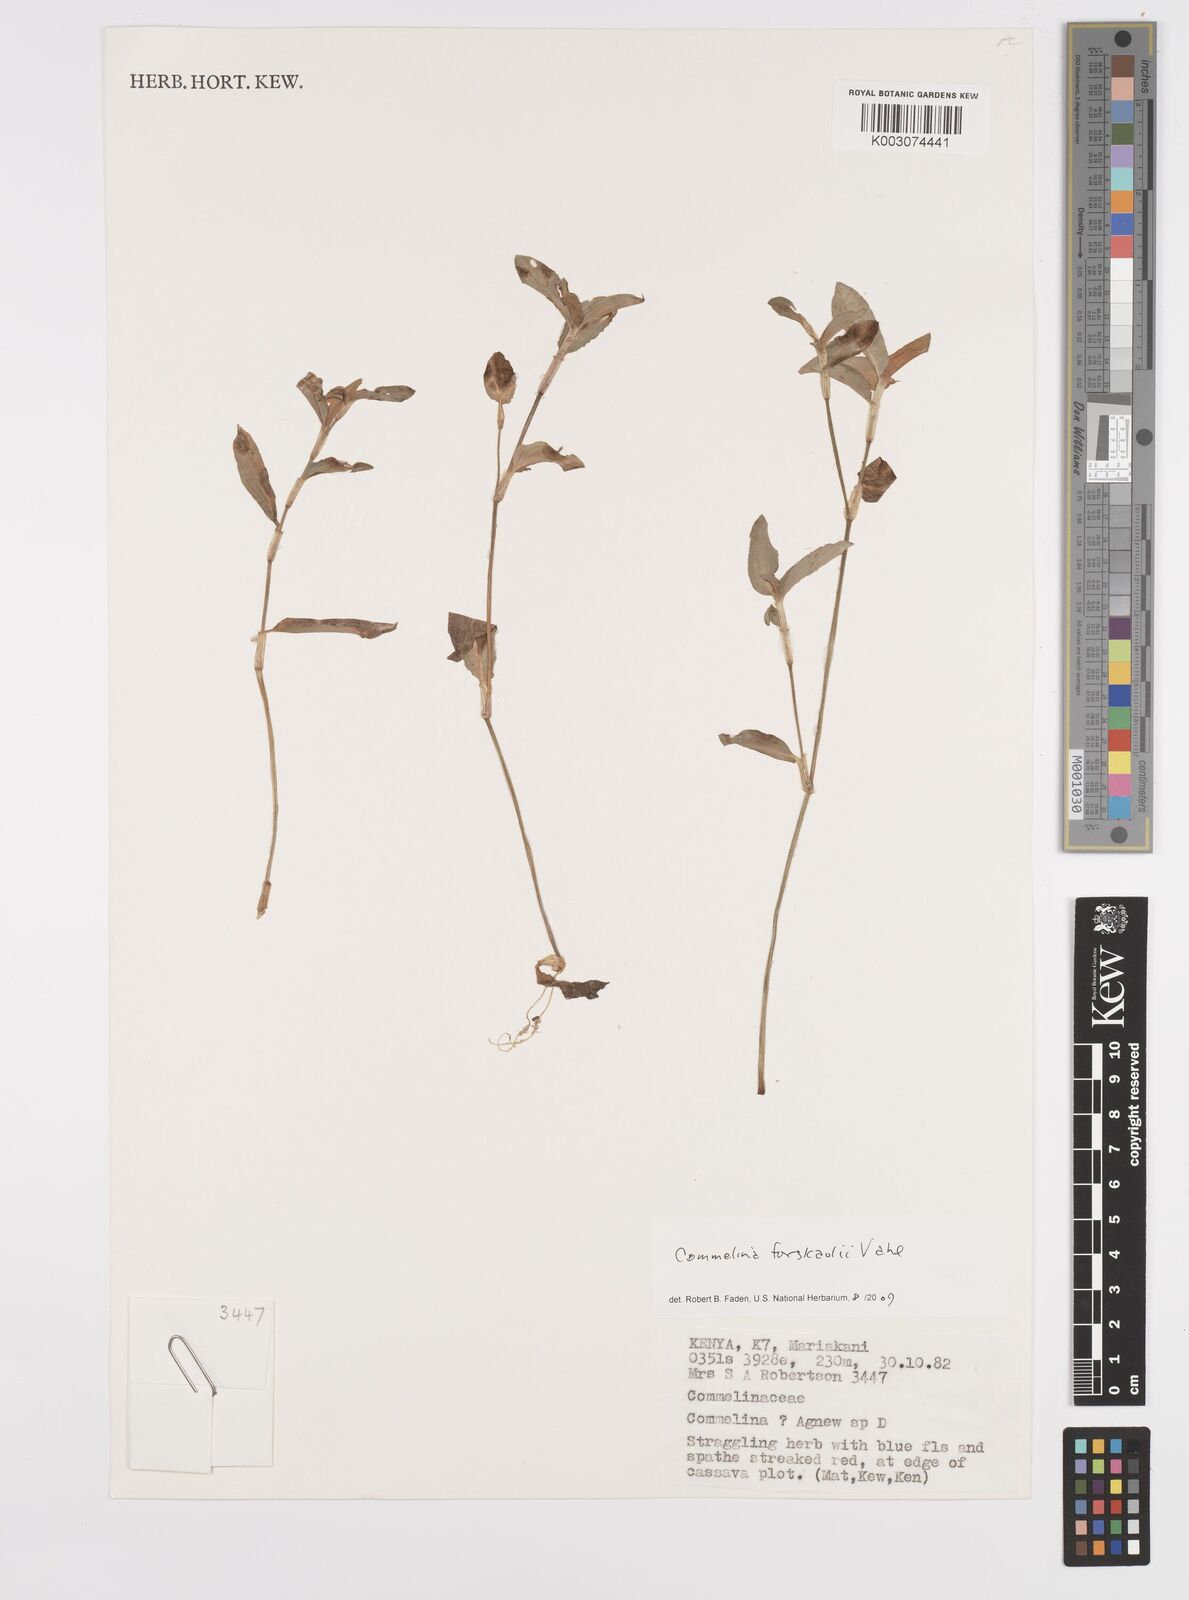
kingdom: Plantae
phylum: Tracheophyta
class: Liliopsida
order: Commelinales
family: Commelinaceae
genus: Commelina
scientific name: Commelina
